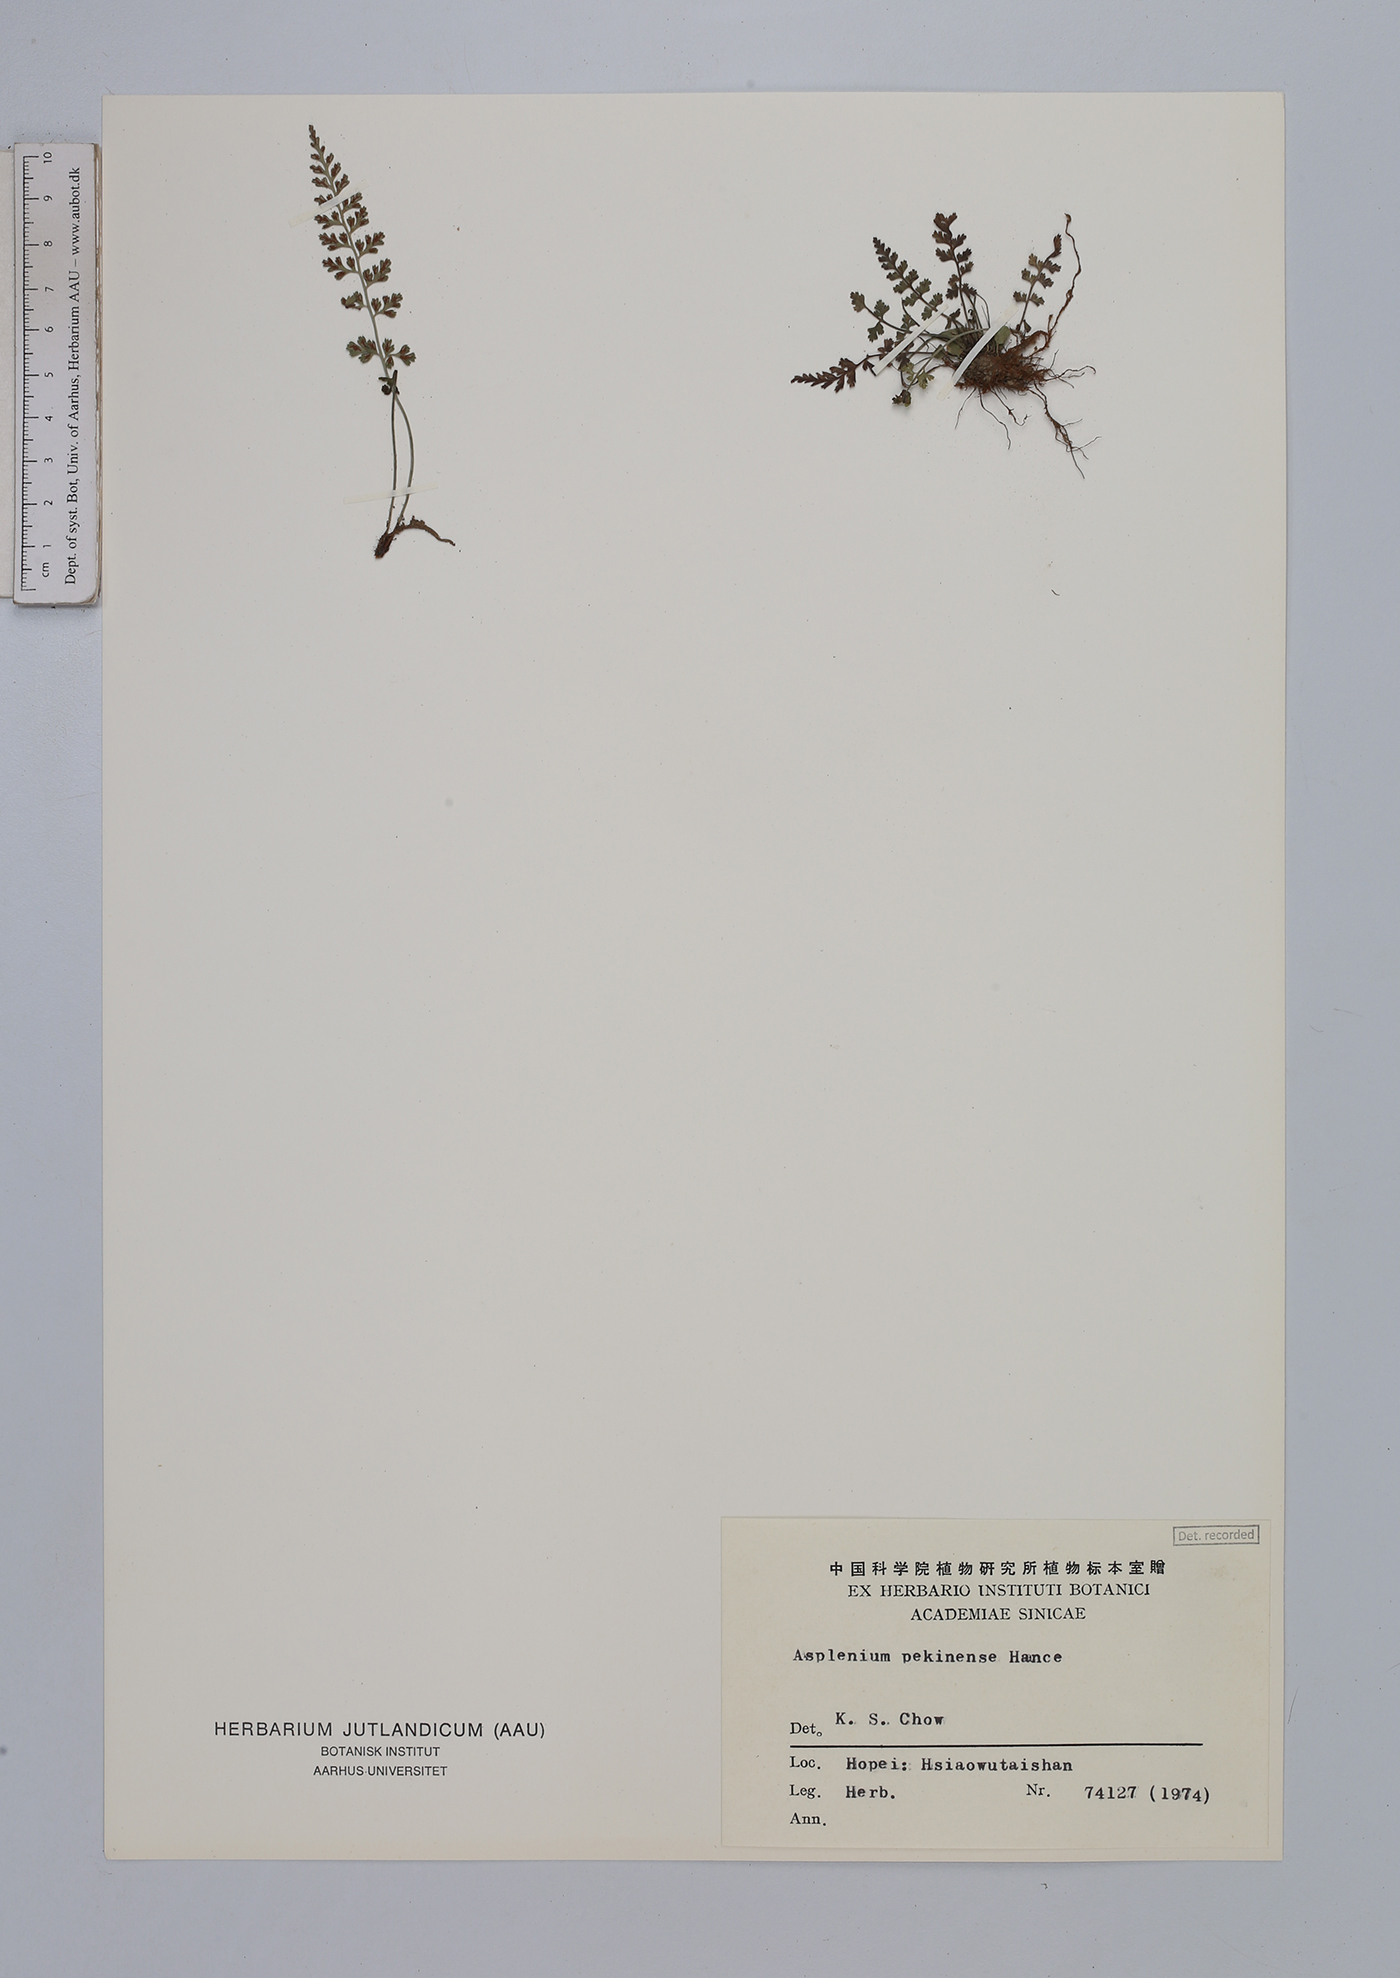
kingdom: Plantae
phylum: Tracheophyta
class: Polypodiopsida
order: Polypodiales
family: Aspleniaceae
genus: Asplenium
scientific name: Asplenium sarelii
